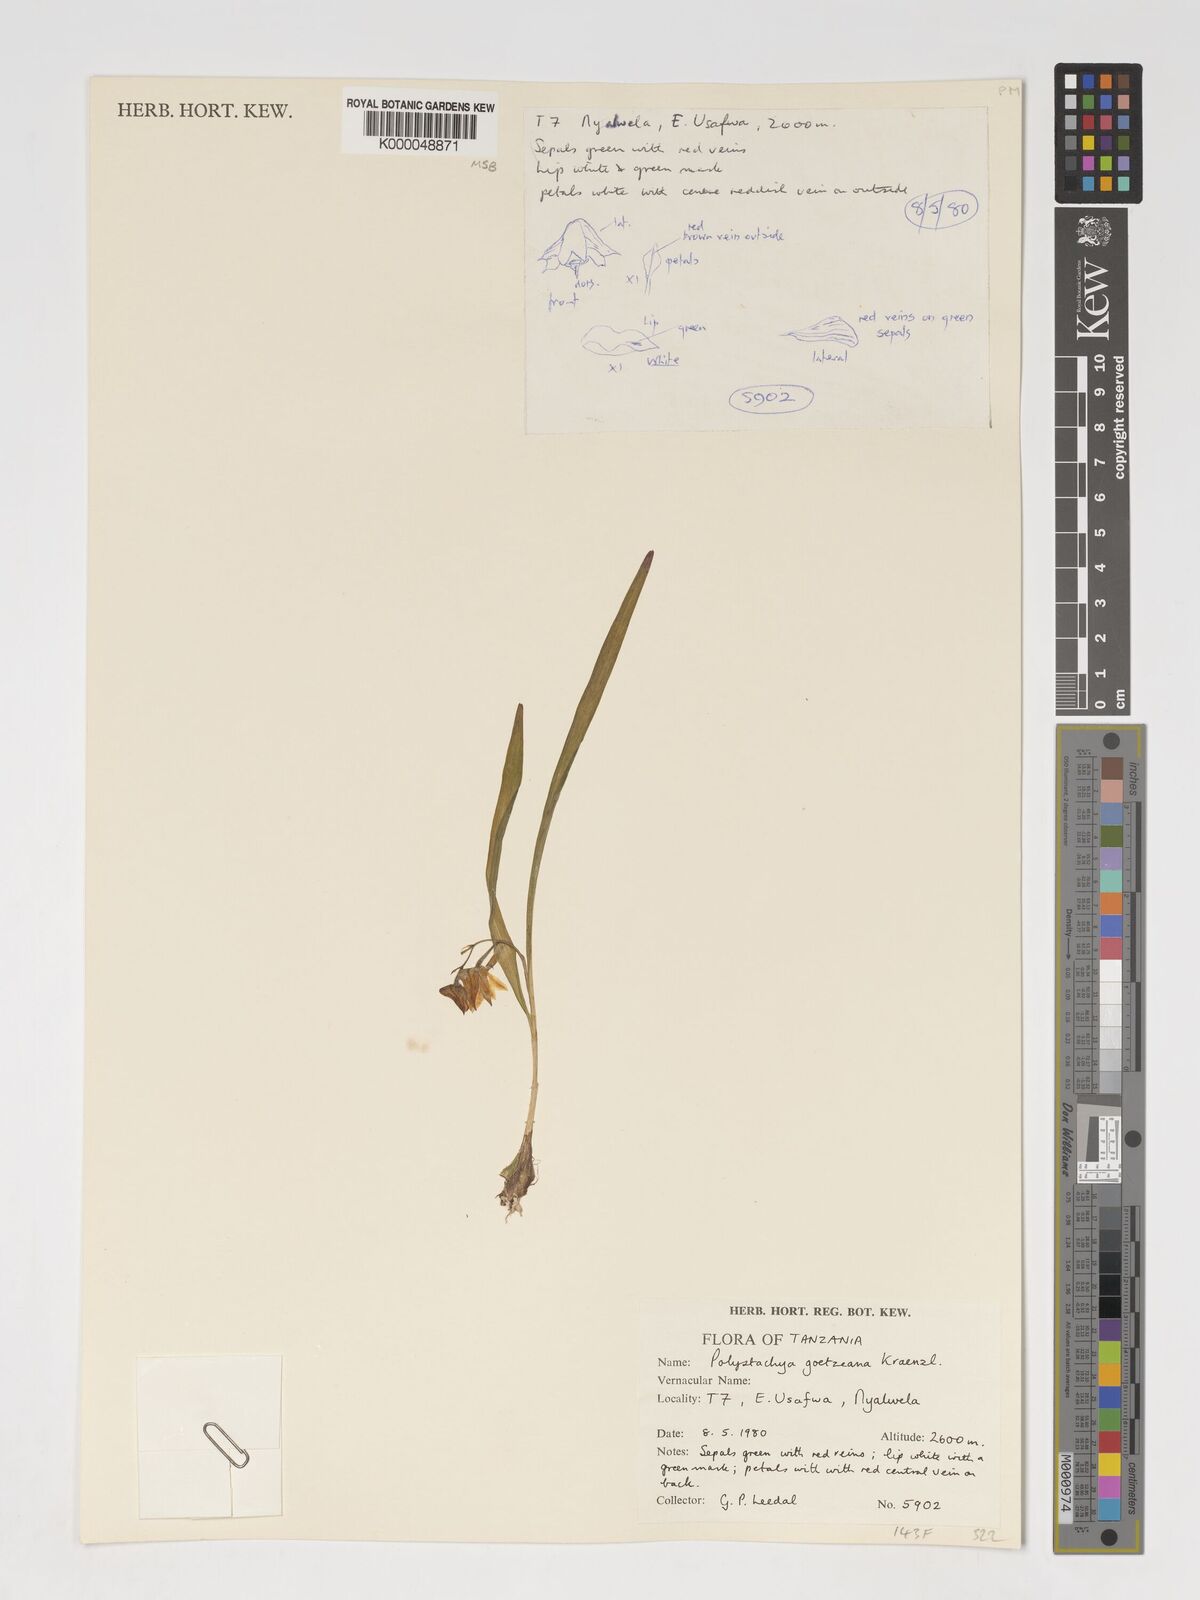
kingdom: Plantae
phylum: Tracheophyta
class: Liliopsida
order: Asparagales
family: Orchidaceae
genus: Polystachya
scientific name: Polystachya goetzeana
